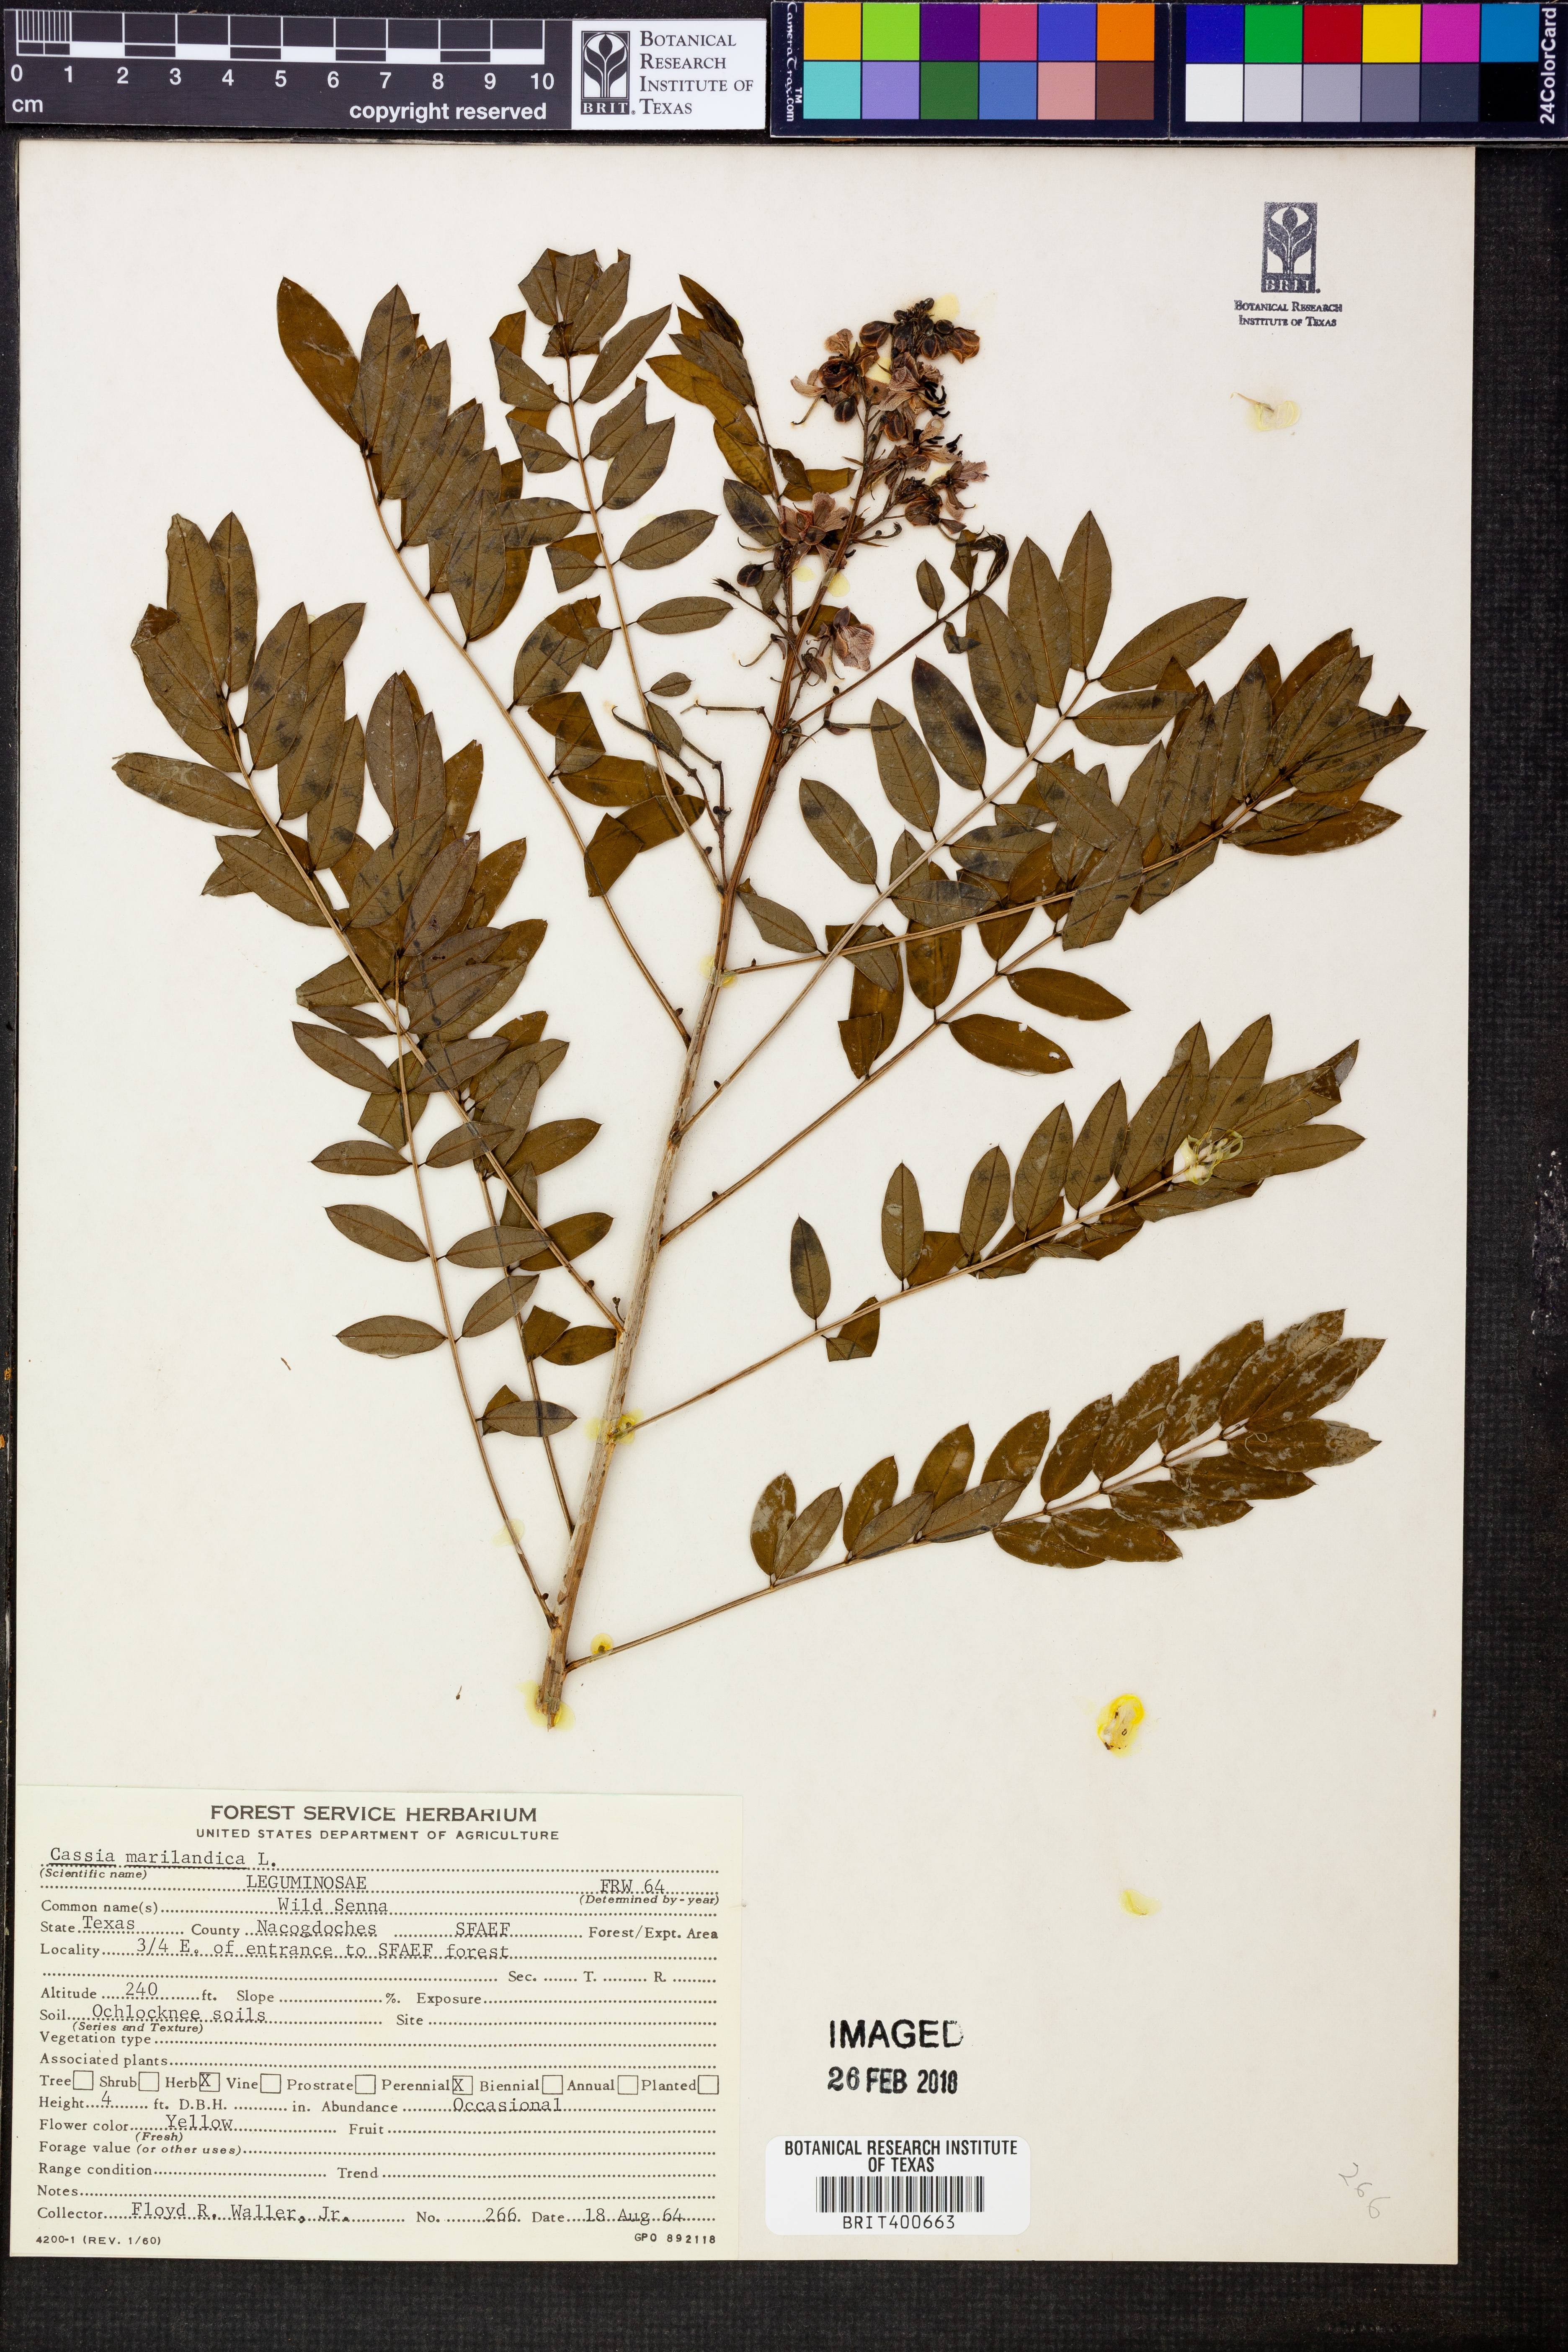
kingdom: Plantae
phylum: Tracheophyta
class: Magnoliopsida
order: Fabales
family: Fabaceae
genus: Senna
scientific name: Senna marilandica
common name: American senna
